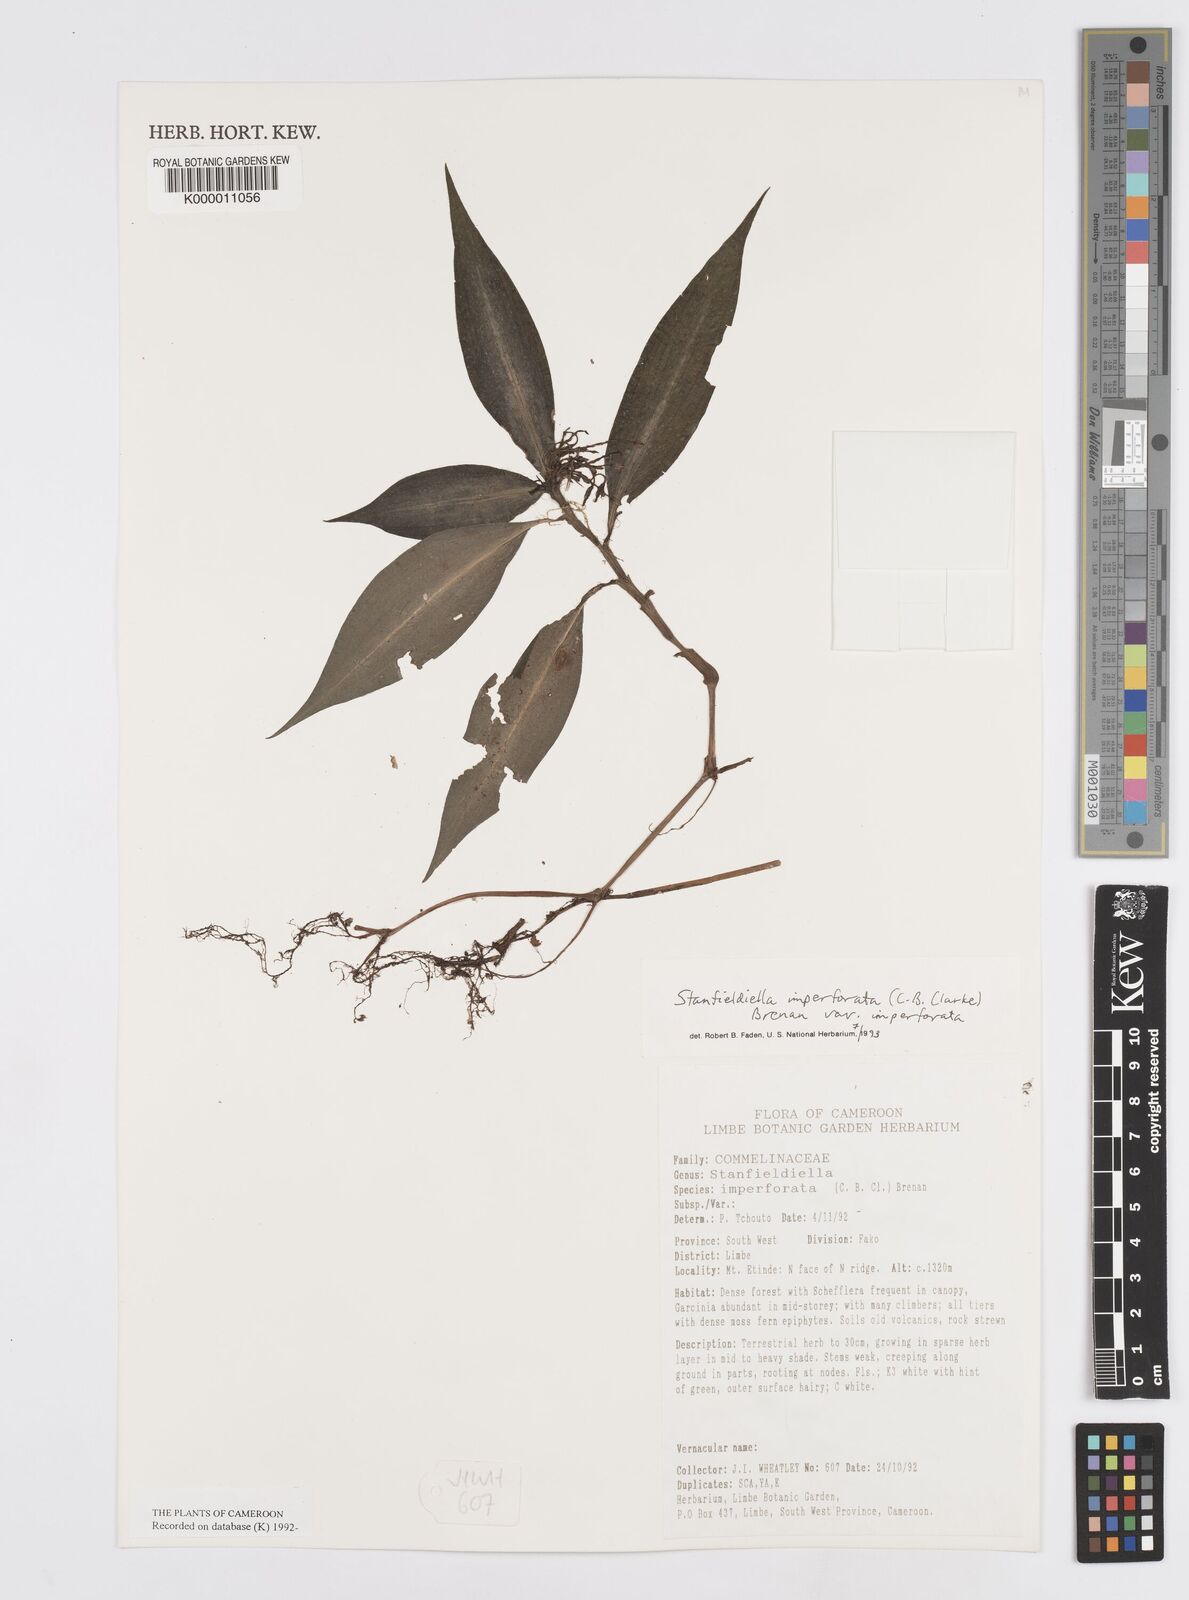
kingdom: Plantae
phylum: Tracheophyta
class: Liliopsida
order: Commelinales
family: Commelinaceae
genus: Stanfieldiella
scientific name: Stanfieldiella imperforata
